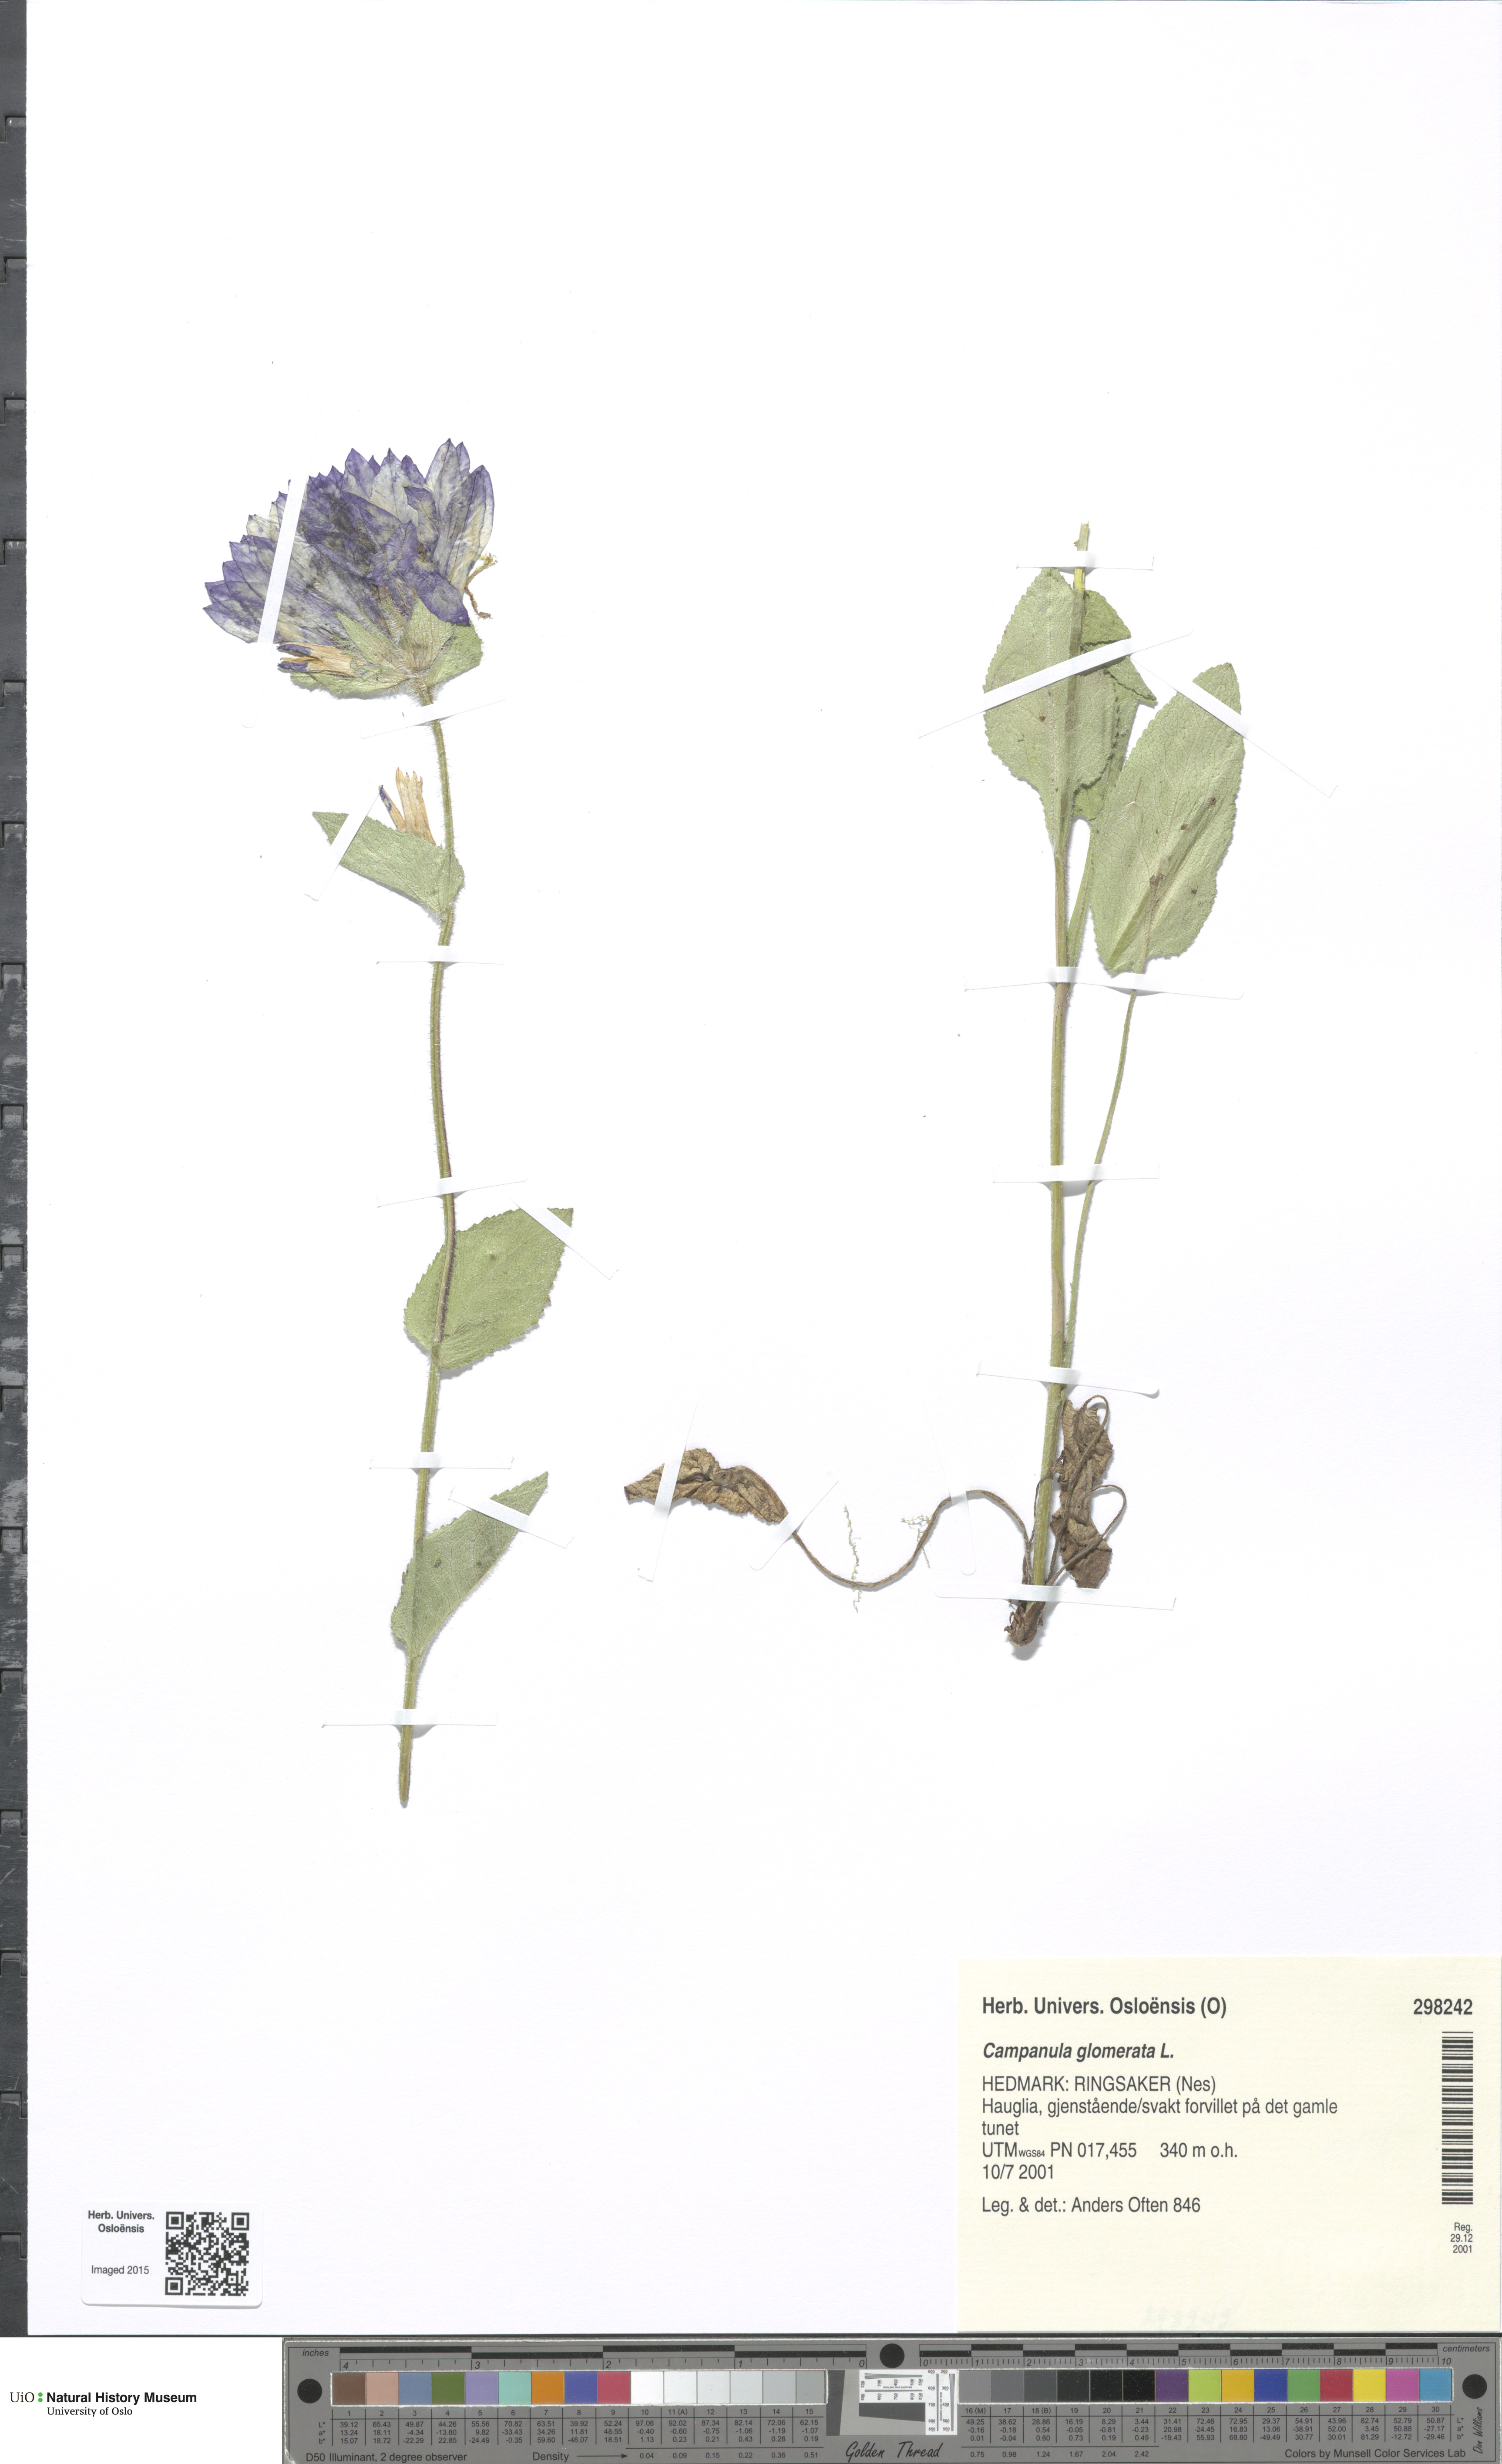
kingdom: Plantae
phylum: Tracheophyta
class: Magnoliopsida
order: Asterales
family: Campanulaceae
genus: Campanula
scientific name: Campanula glomerata
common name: Clustered bellflower
